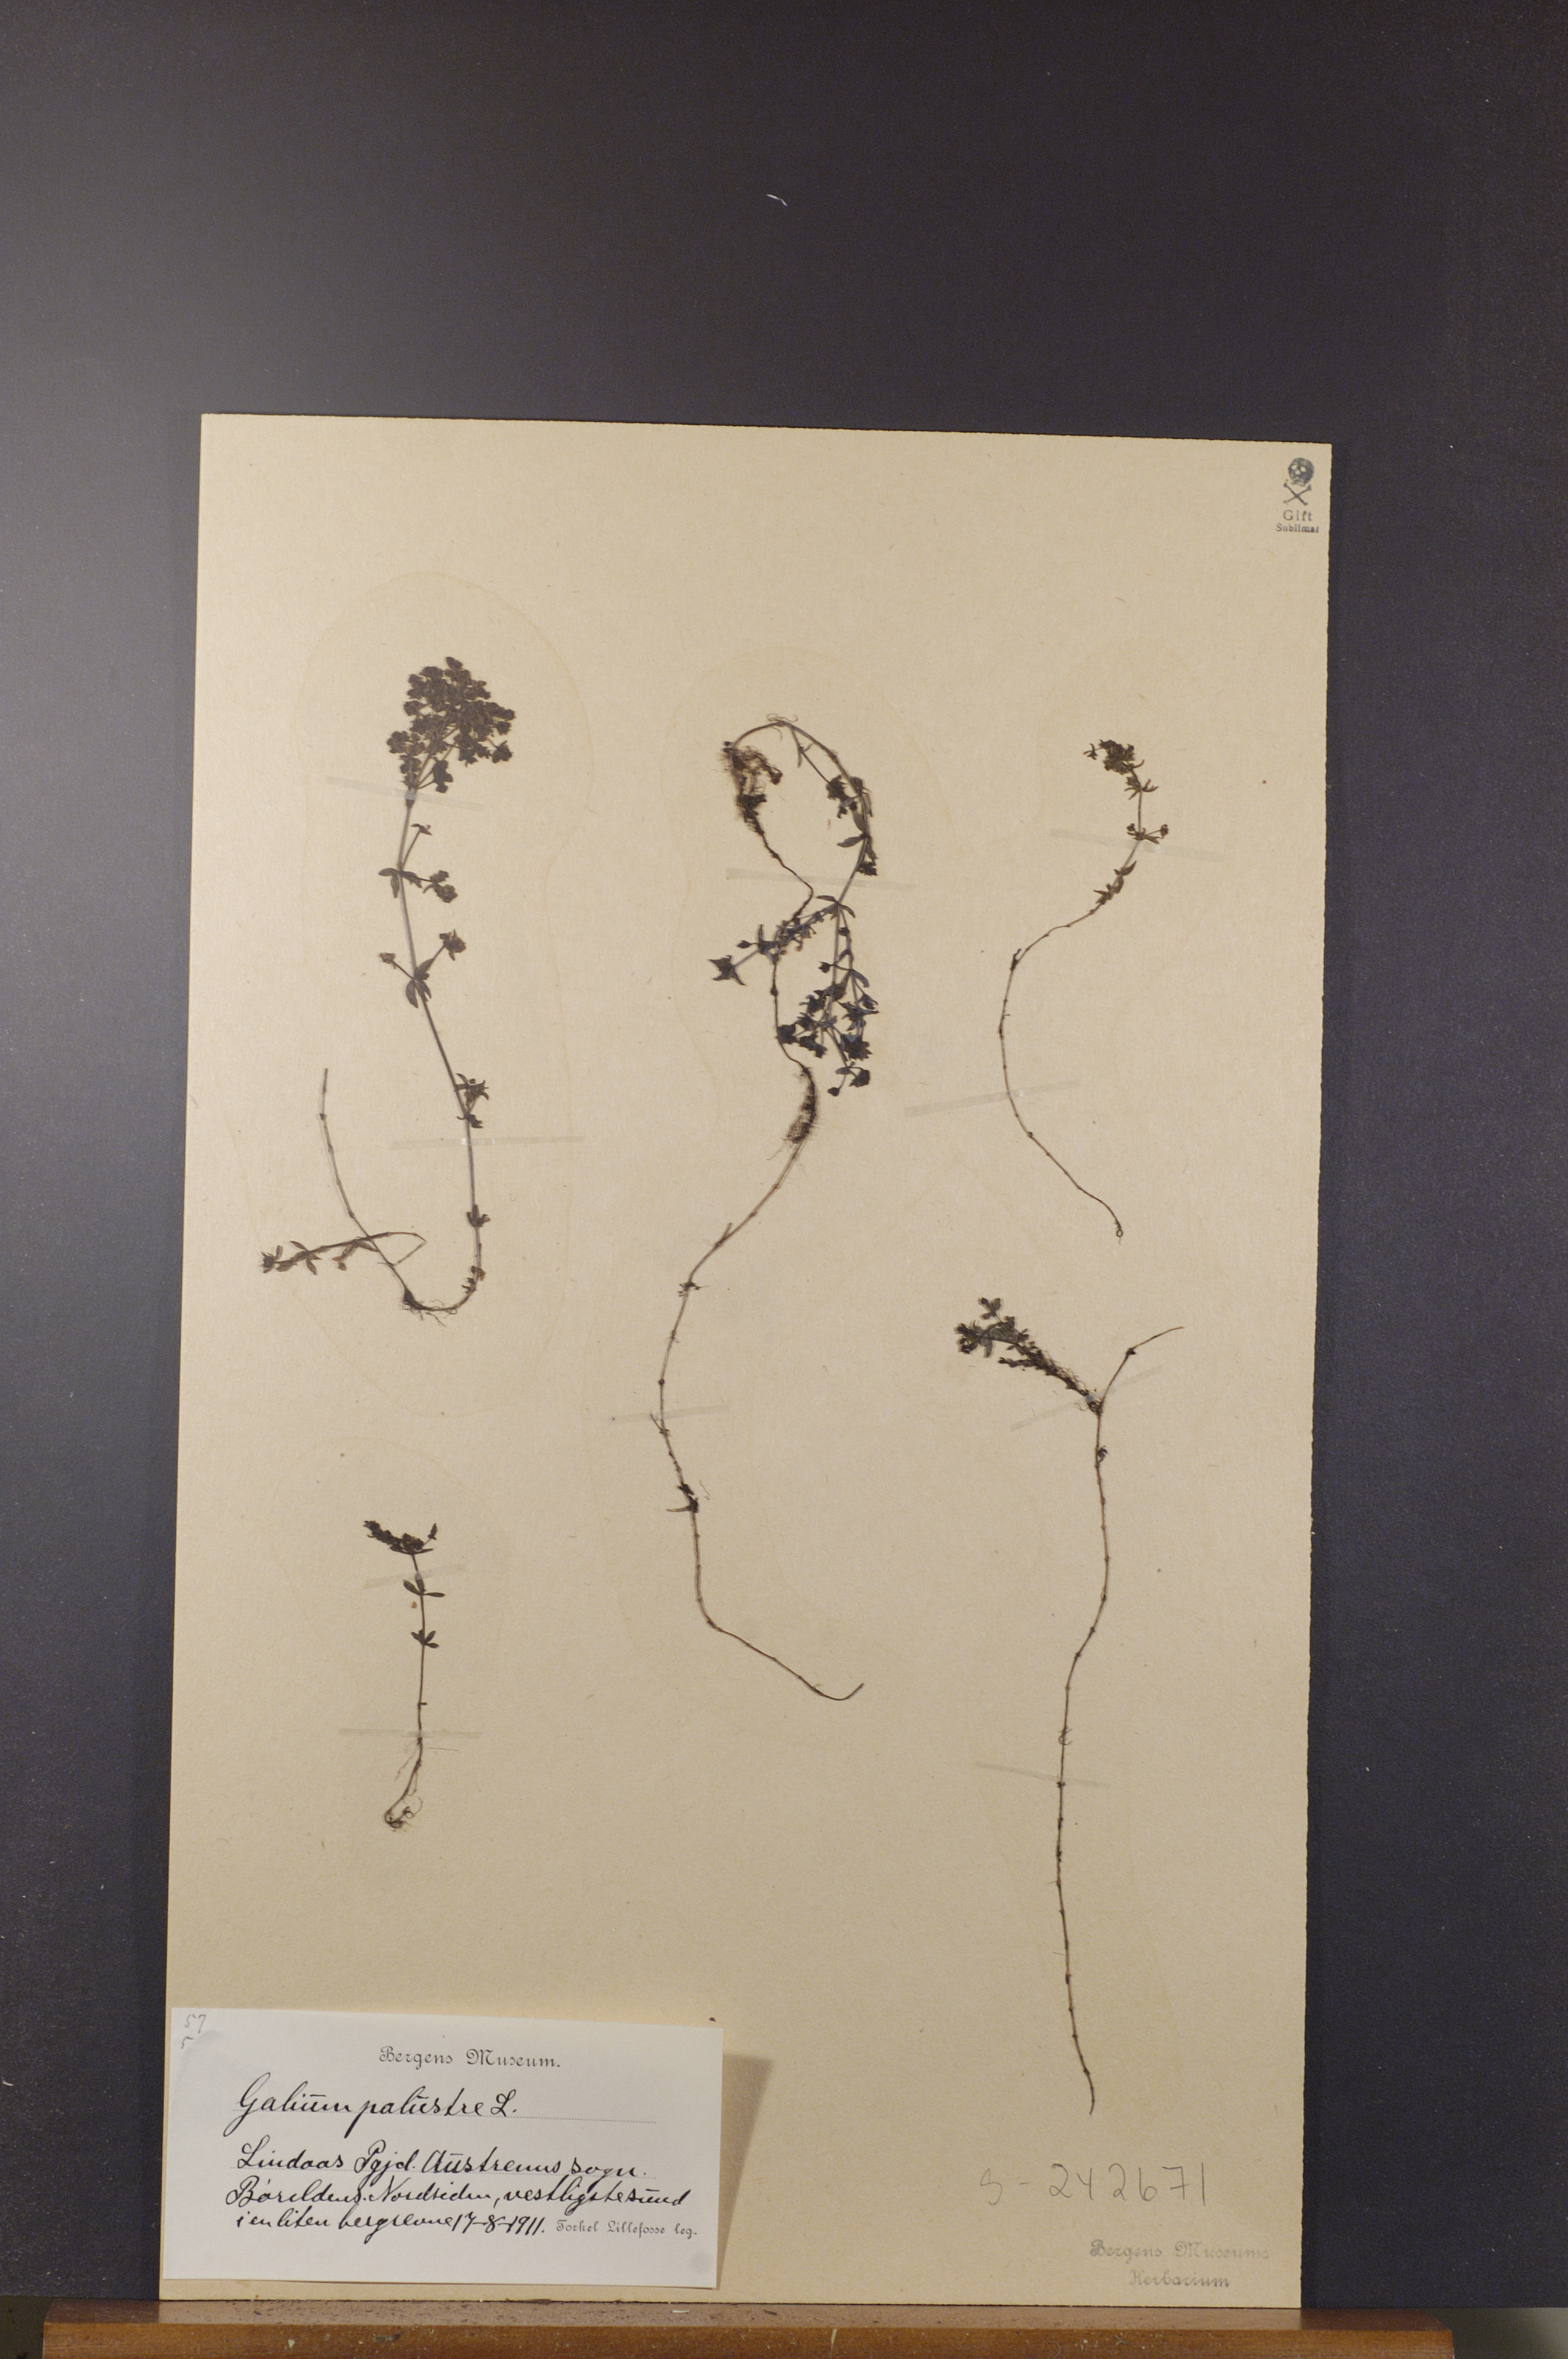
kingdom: Plantae
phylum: Tracheophyta
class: Magnoliopsida
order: Gentianales
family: Rubiaceae
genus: Galium
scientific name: Galium palustre
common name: Common marsh-bedstraw
